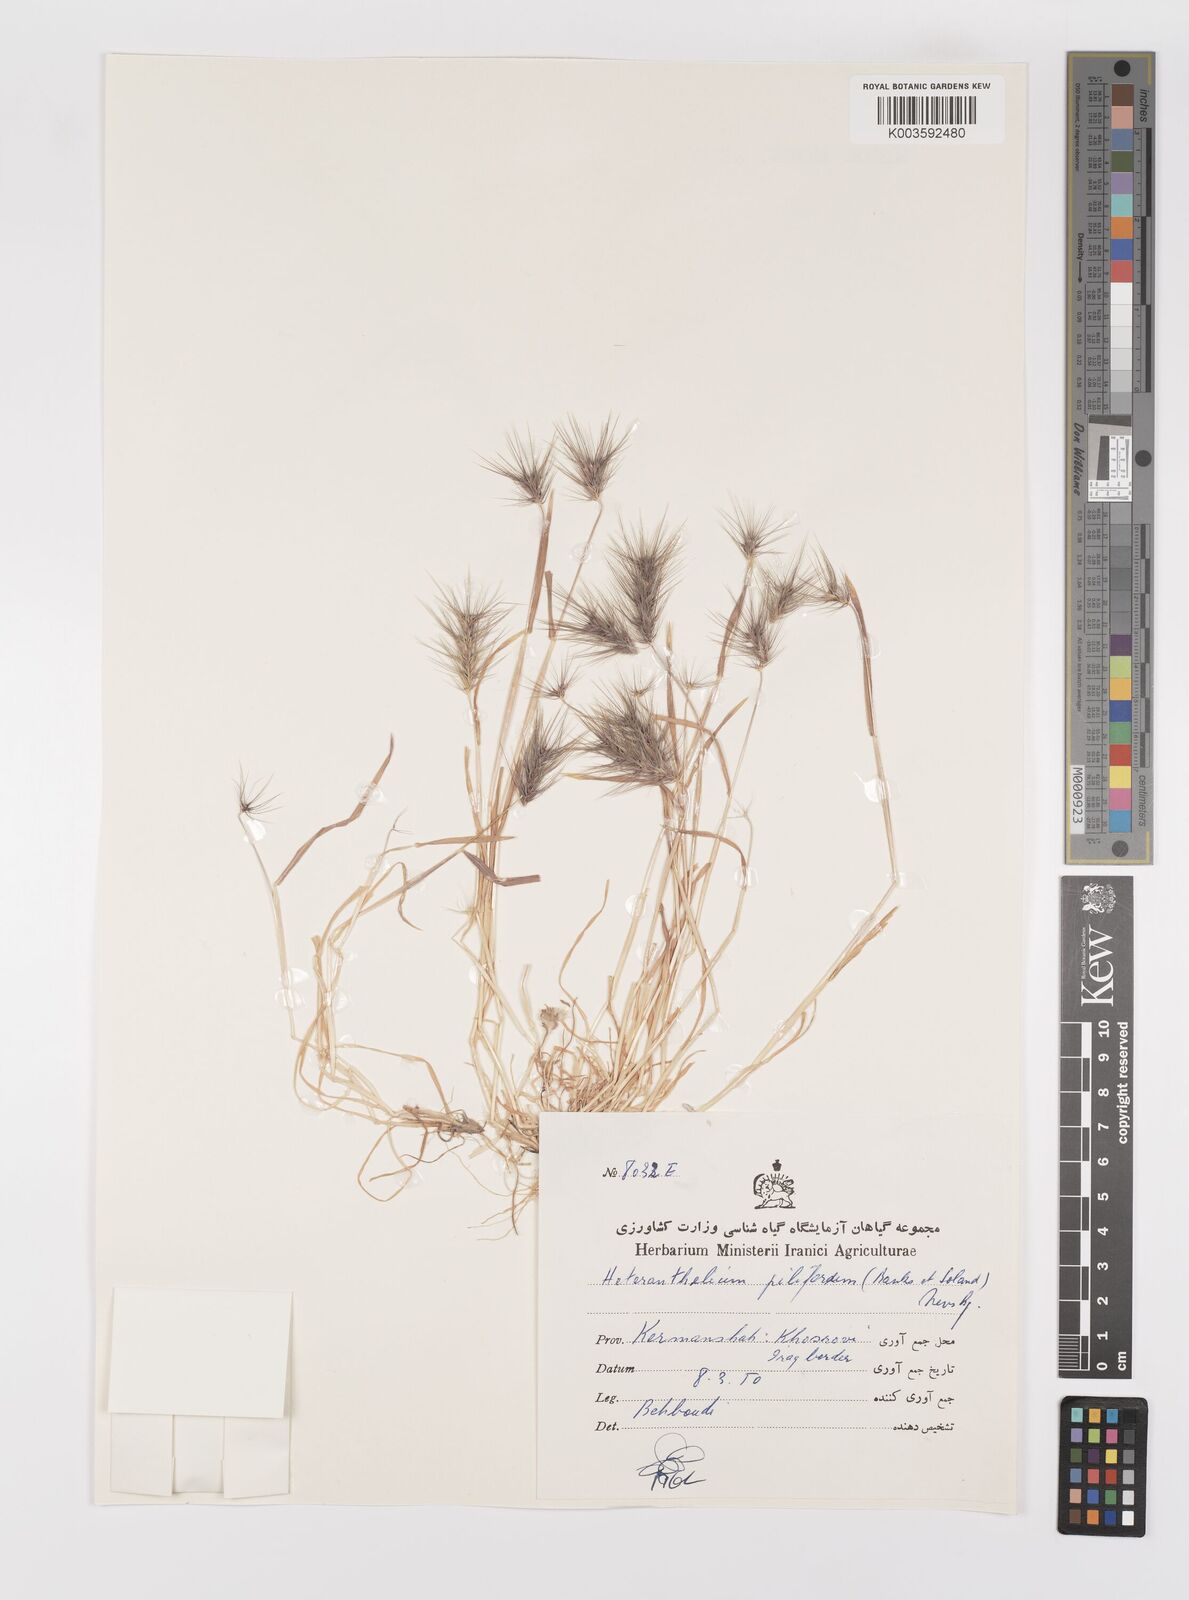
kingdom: Plantae
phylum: Tracheophyta
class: Liliopsida
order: Poales
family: Poaceae
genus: Heteranthelium
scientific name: Heteranthelium piliferum
